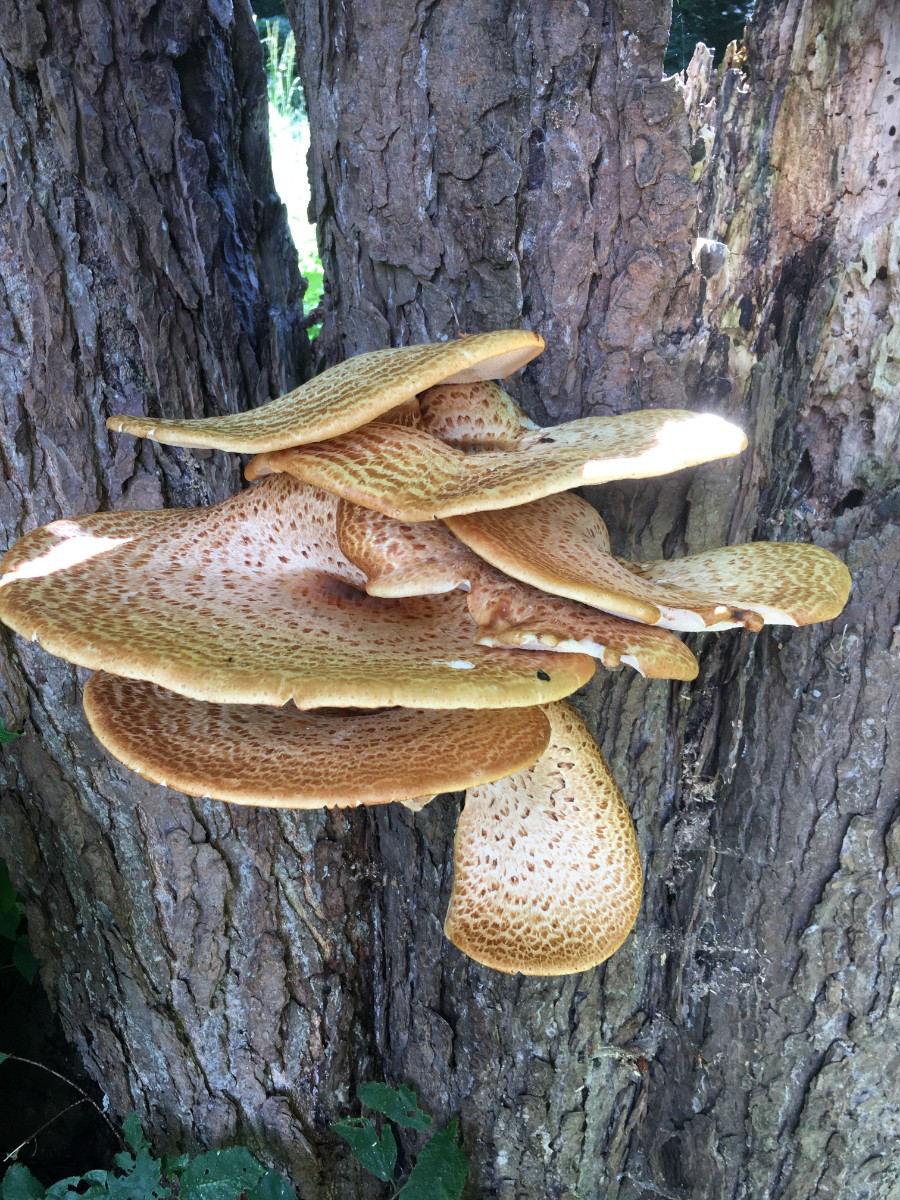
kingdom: Fungi
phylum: Basidiomycota
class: Agaricomycetes
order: Polyporales
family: Polyporaceae
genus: Cerioporus
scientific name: Cerioporus squamosus
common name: skællet stilkporesvamp
